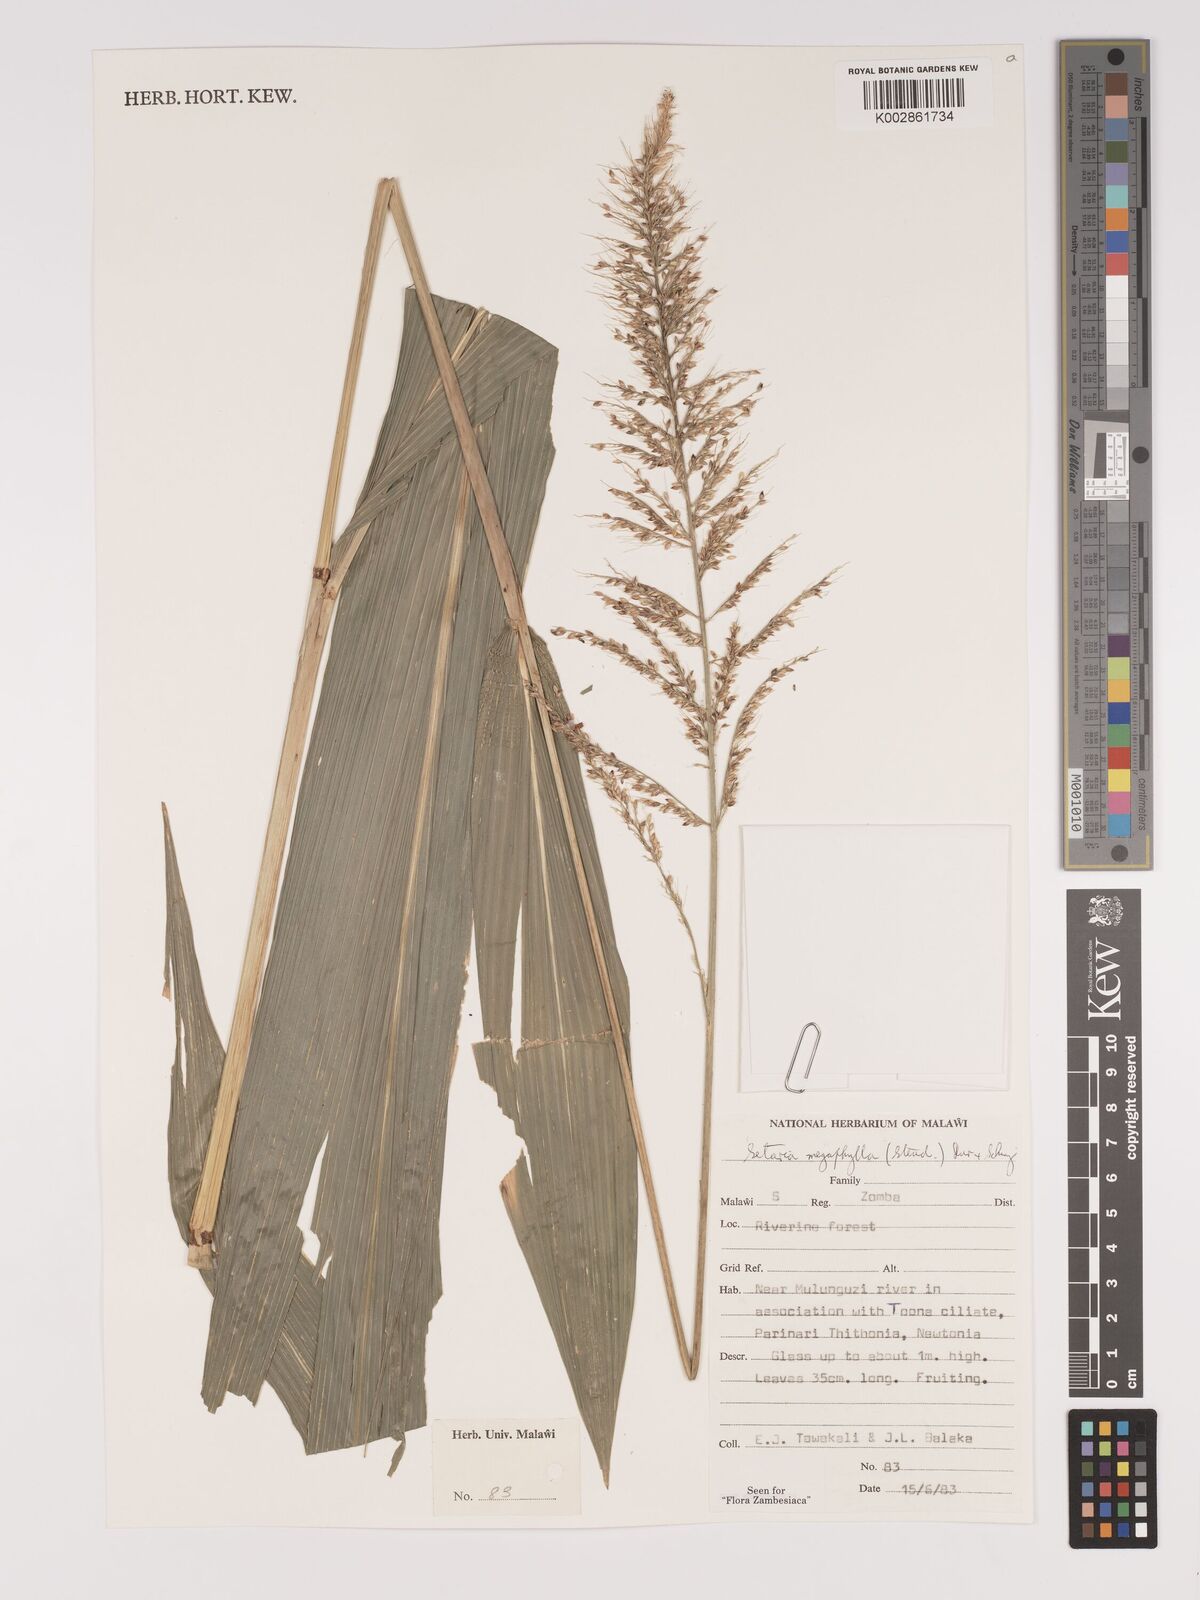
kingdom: Plantae
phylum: Tracheophyta
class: Liliopsida
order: Poales
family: Poaceae
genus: Setaria
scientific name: Setaria megaphylla
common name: Bigleaf bristlegrass
